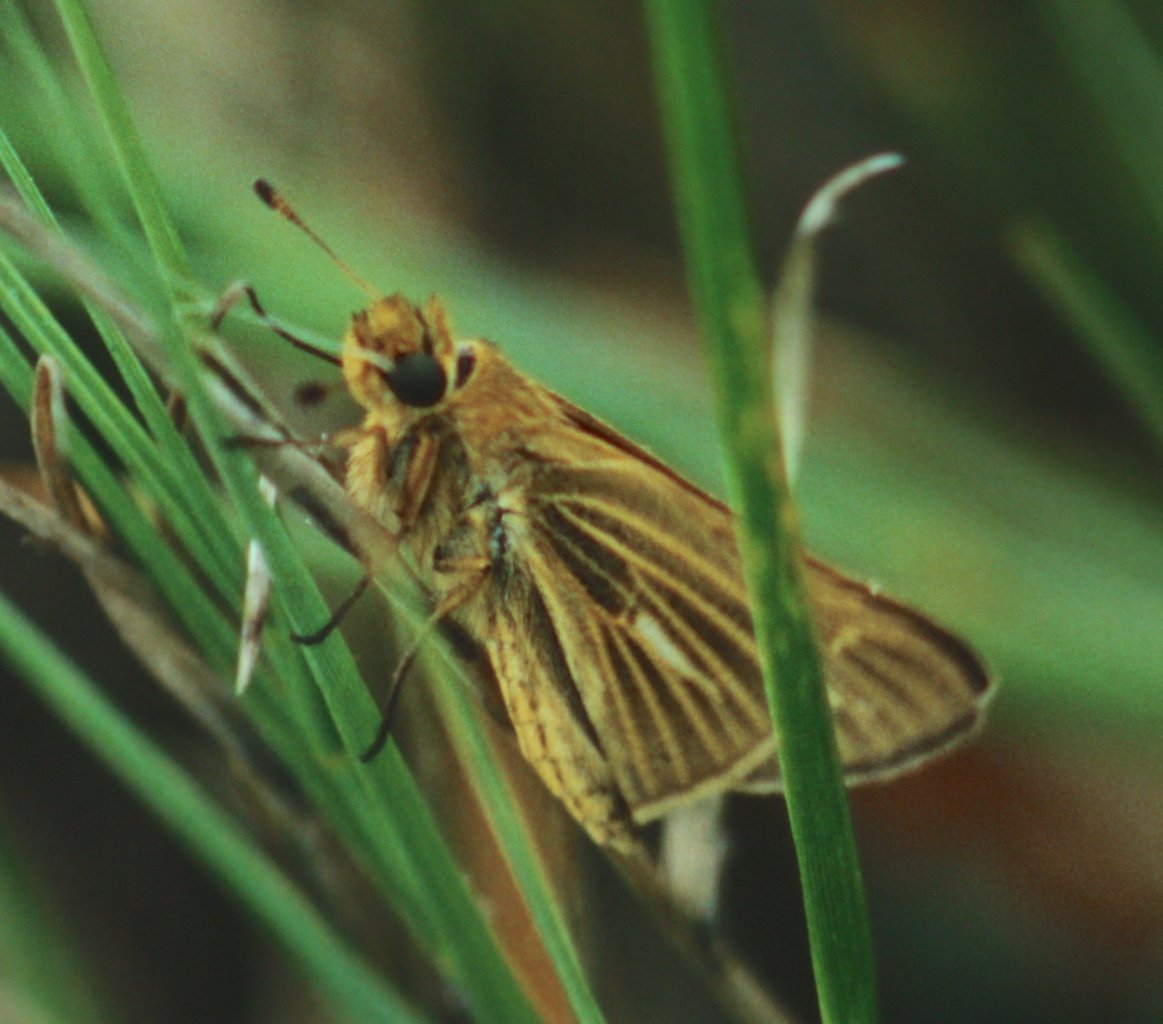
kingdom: Animalia
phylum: Arthropoda
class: Insecta
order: Lepidoptera
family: Hesperiidae
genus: Panoquina
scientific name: Panoquina panoquin
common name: Salt Marsh Skipper
